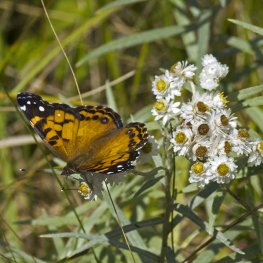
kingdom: Animalia
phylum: Arthropoda
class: Insecta
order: Lepidoptera
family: Nymphalidae
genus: Vanessa
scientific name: Vanessa virginiensis
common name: American Lady
